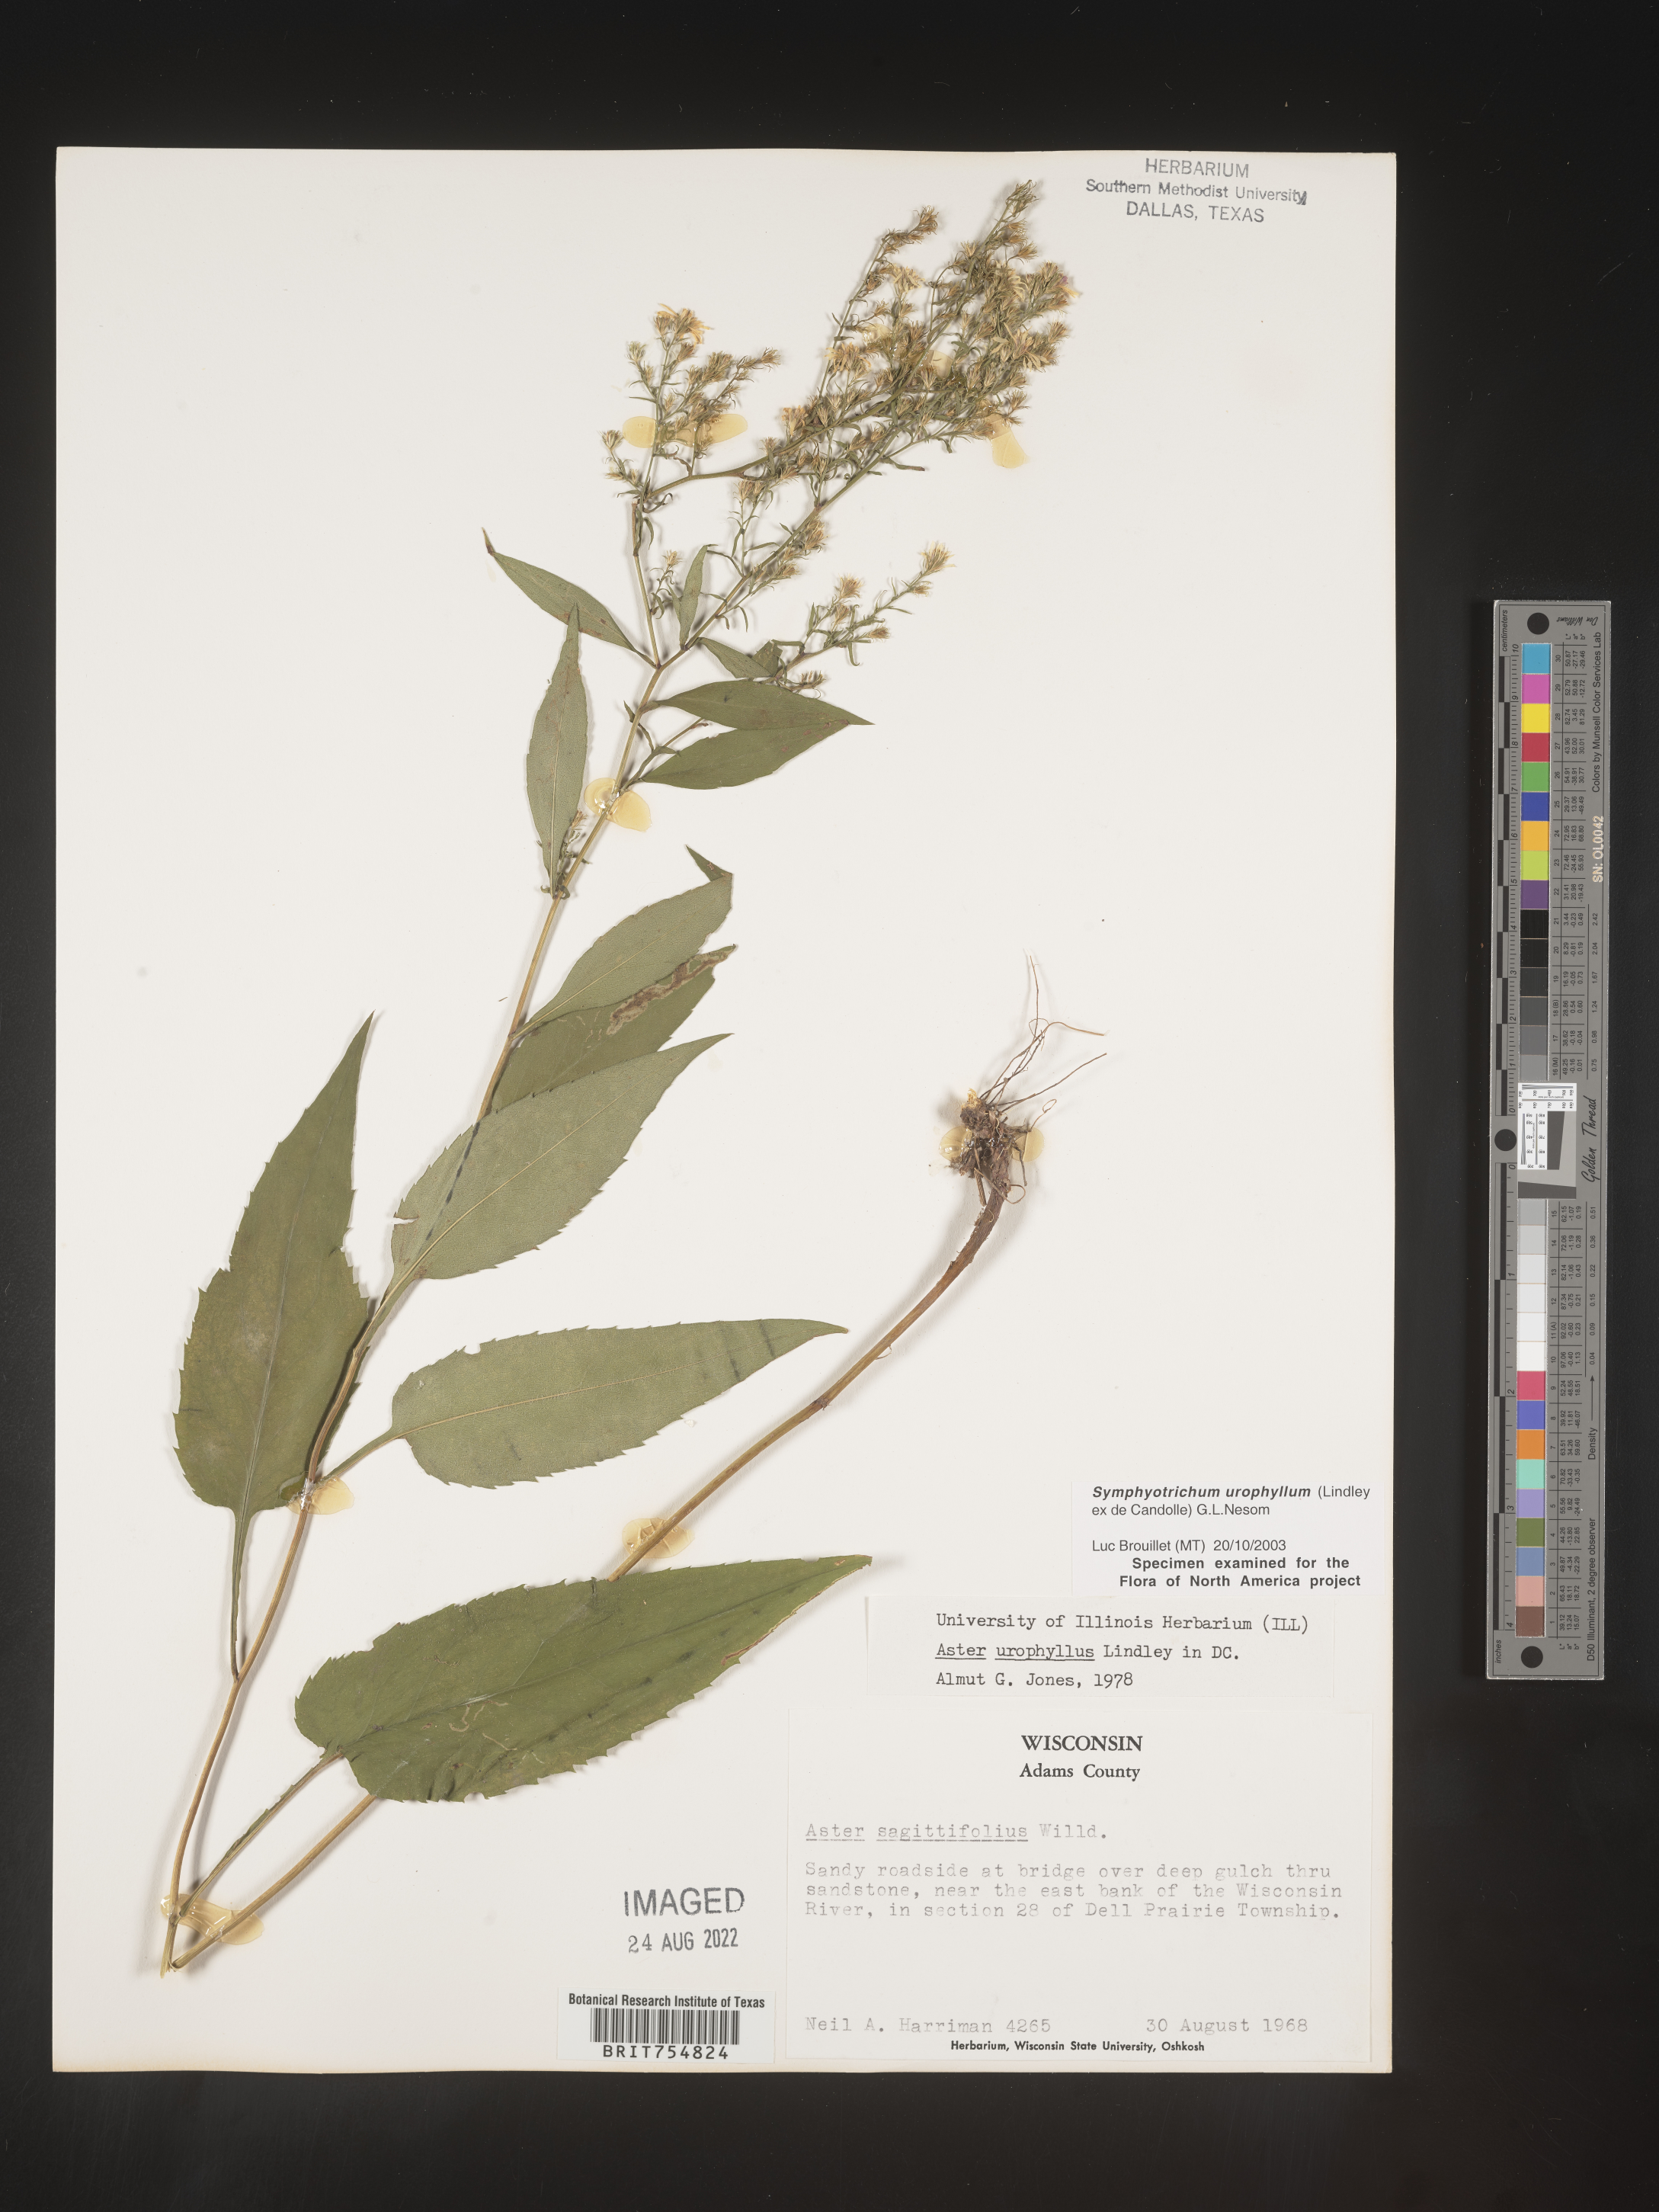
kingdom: Plantae
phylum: Tracheophyta
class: Magnoliopsida
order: Asterales
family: Asteraceae
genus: Symphyotrichum
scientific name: Symphyotrichum urophyllum
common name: Arrow-leaved aster
